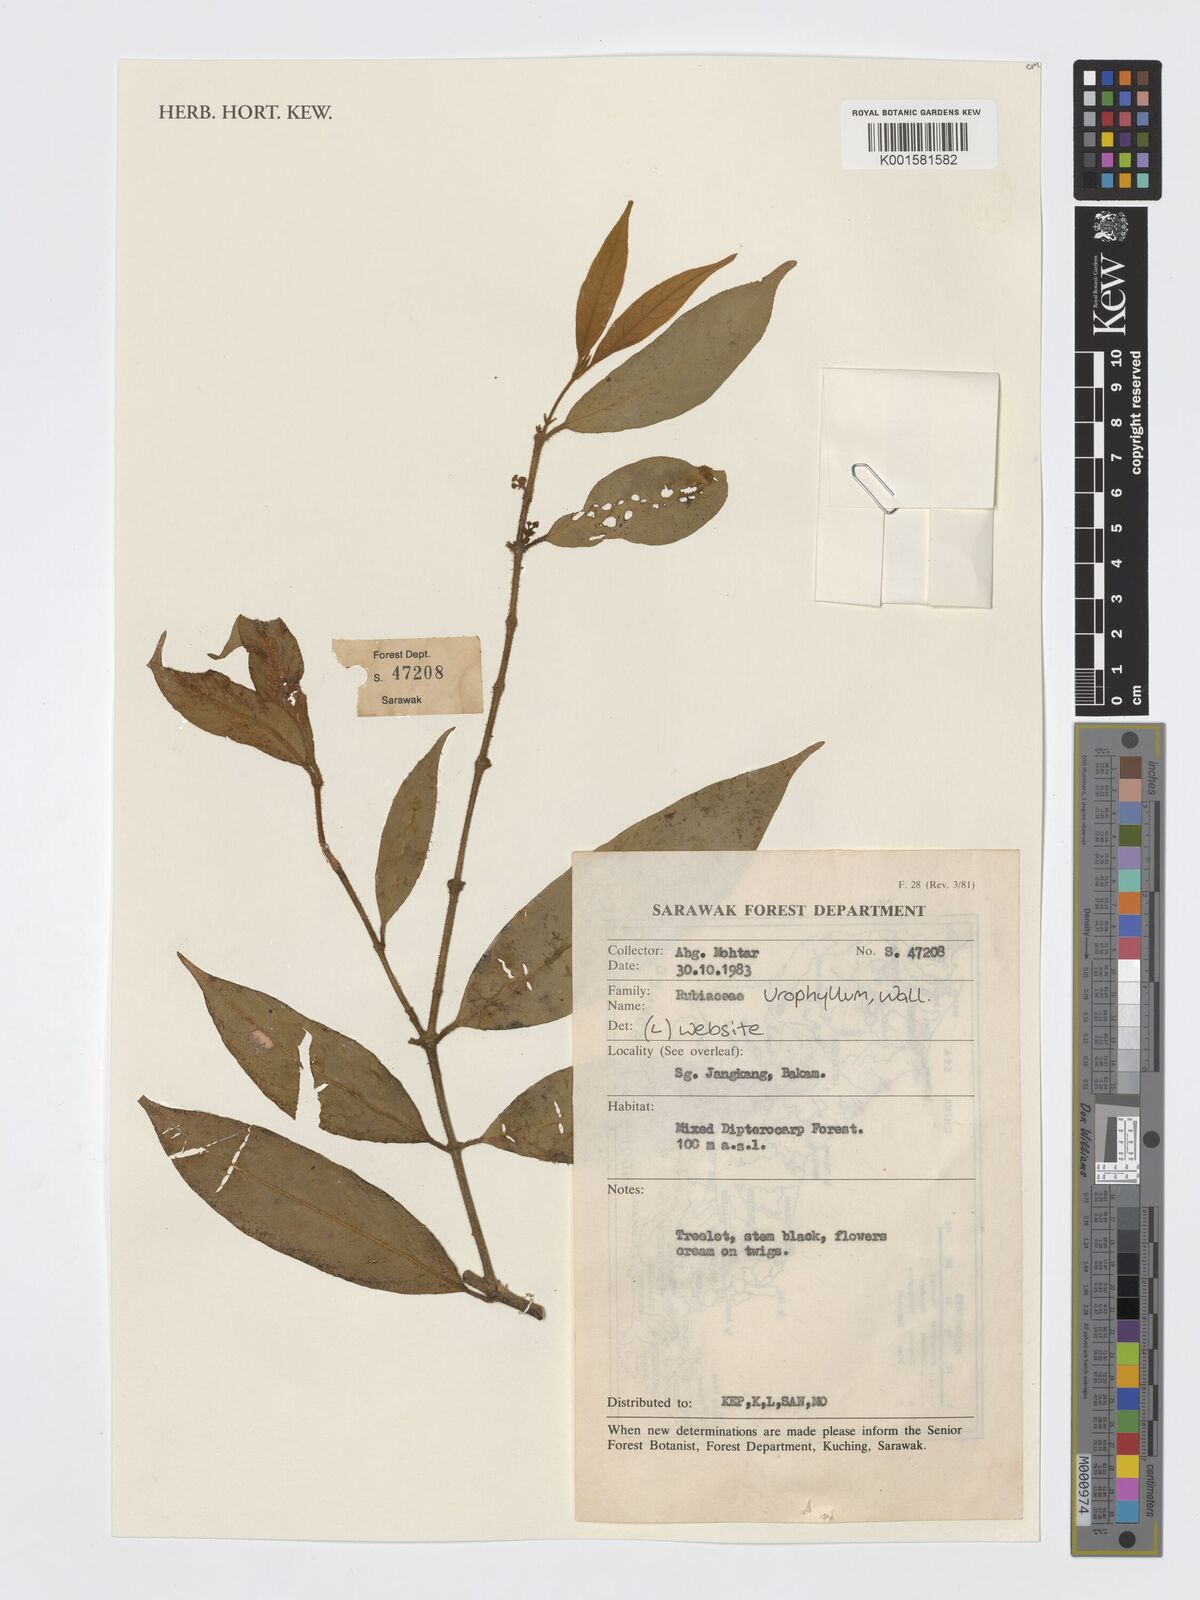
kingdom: Plantae
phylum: Tracheophyta
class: Magnoliopsida
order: Gentianales
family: Rubiaceae
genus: Urophyllum
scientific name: Urophyllum
